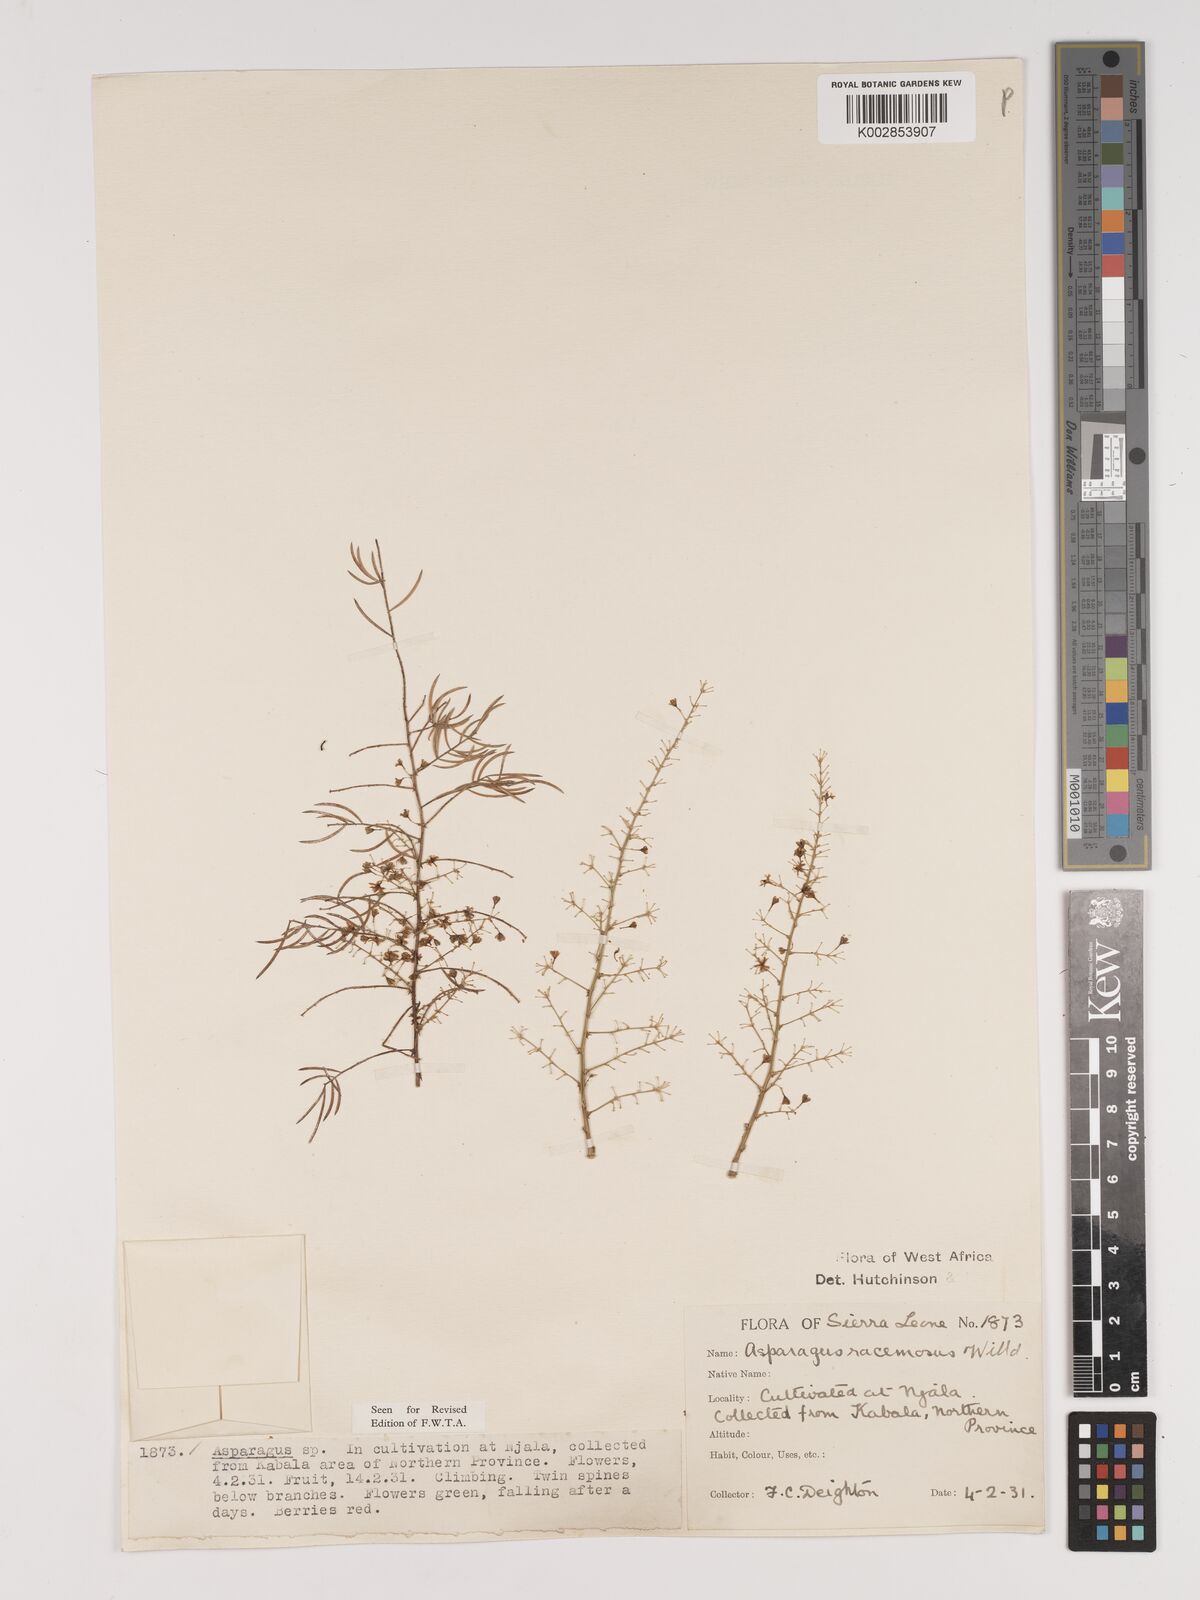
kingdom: Plantae
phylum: Tracheophyta
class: Liliopsida
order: Asparagales
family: Asparagaceae
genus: Asparagus
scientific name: Asparagus racemosus
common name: Asparagus-fern
